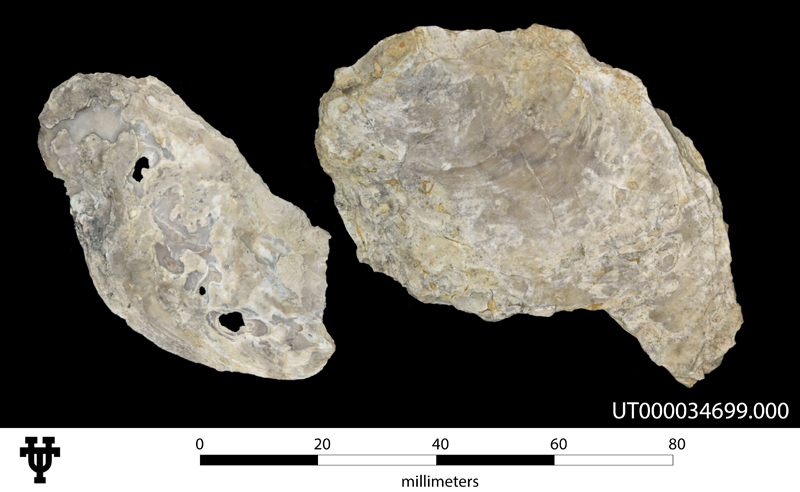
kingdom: Animalia
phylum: Mollusca
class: Bivalvia
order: Ostreida
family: Ostreidae
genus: Ostrea
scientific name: Ostrea
